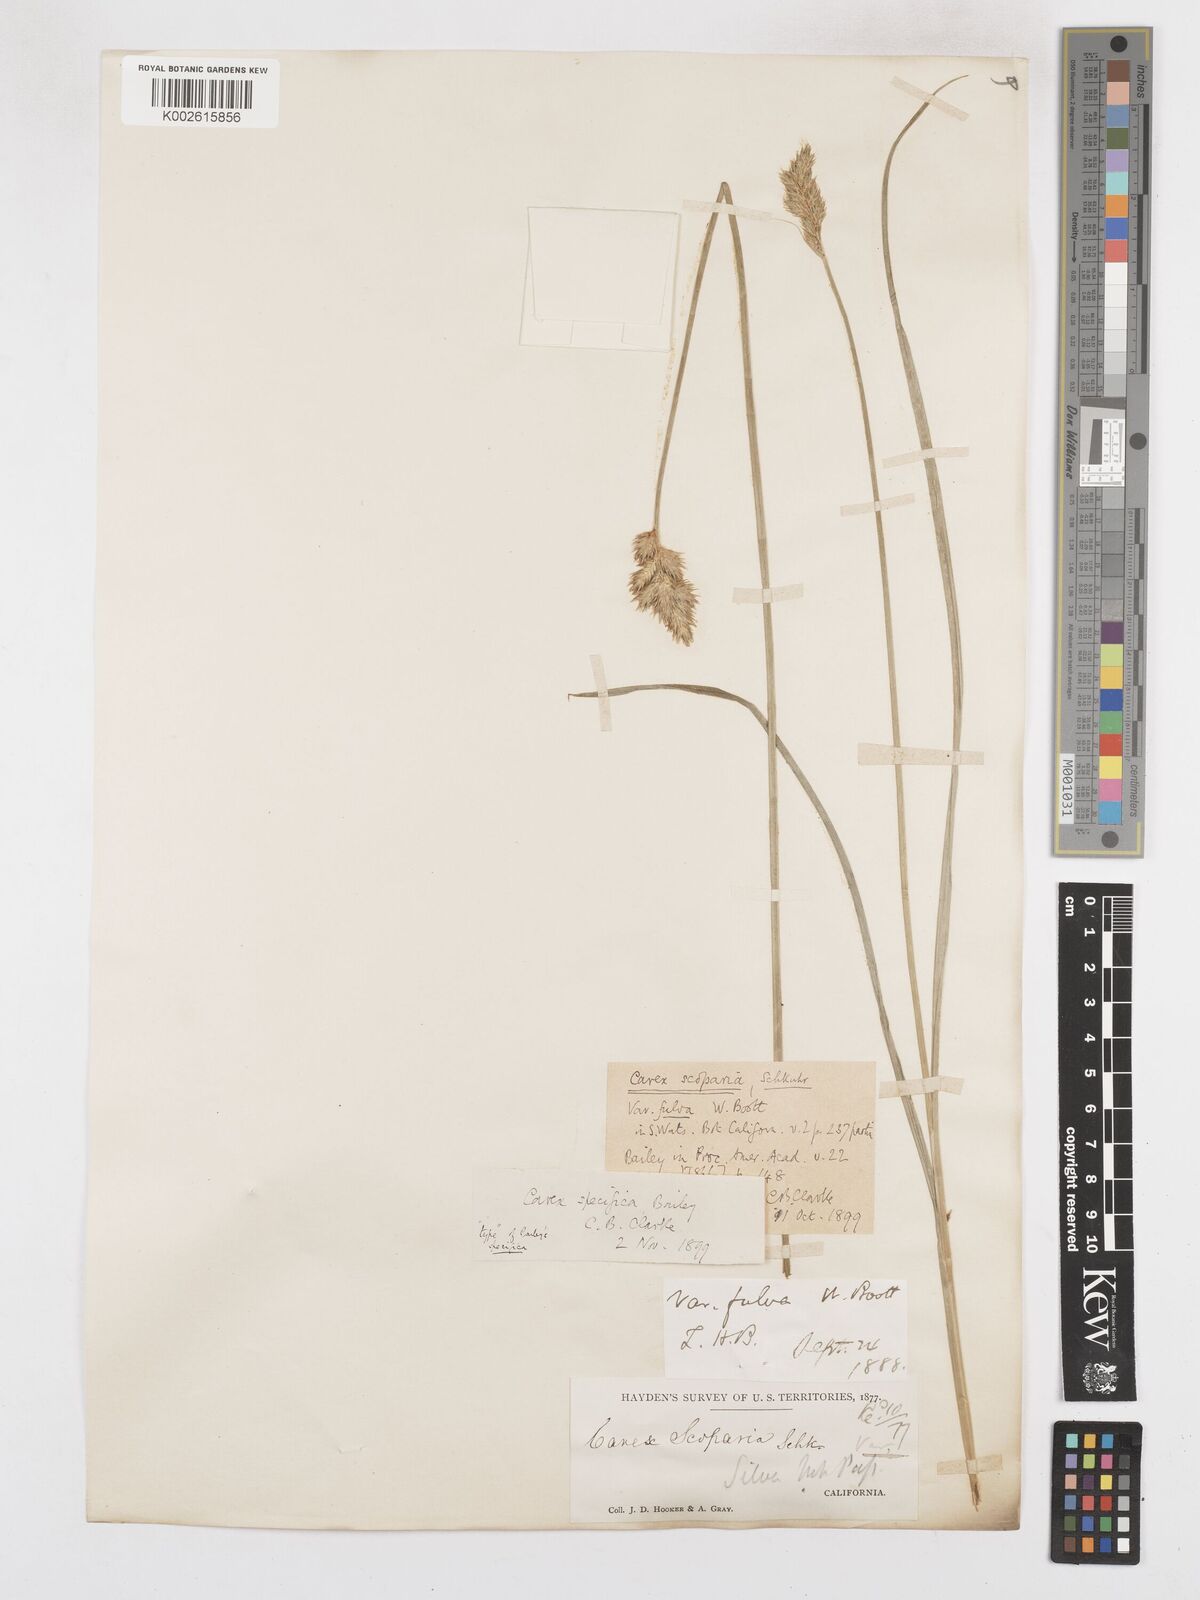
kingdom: Plantae
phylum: Tracheophyta
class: Liliopsida
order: Poales
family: Cyperaceae
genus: Carex
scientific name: Carex specifica
